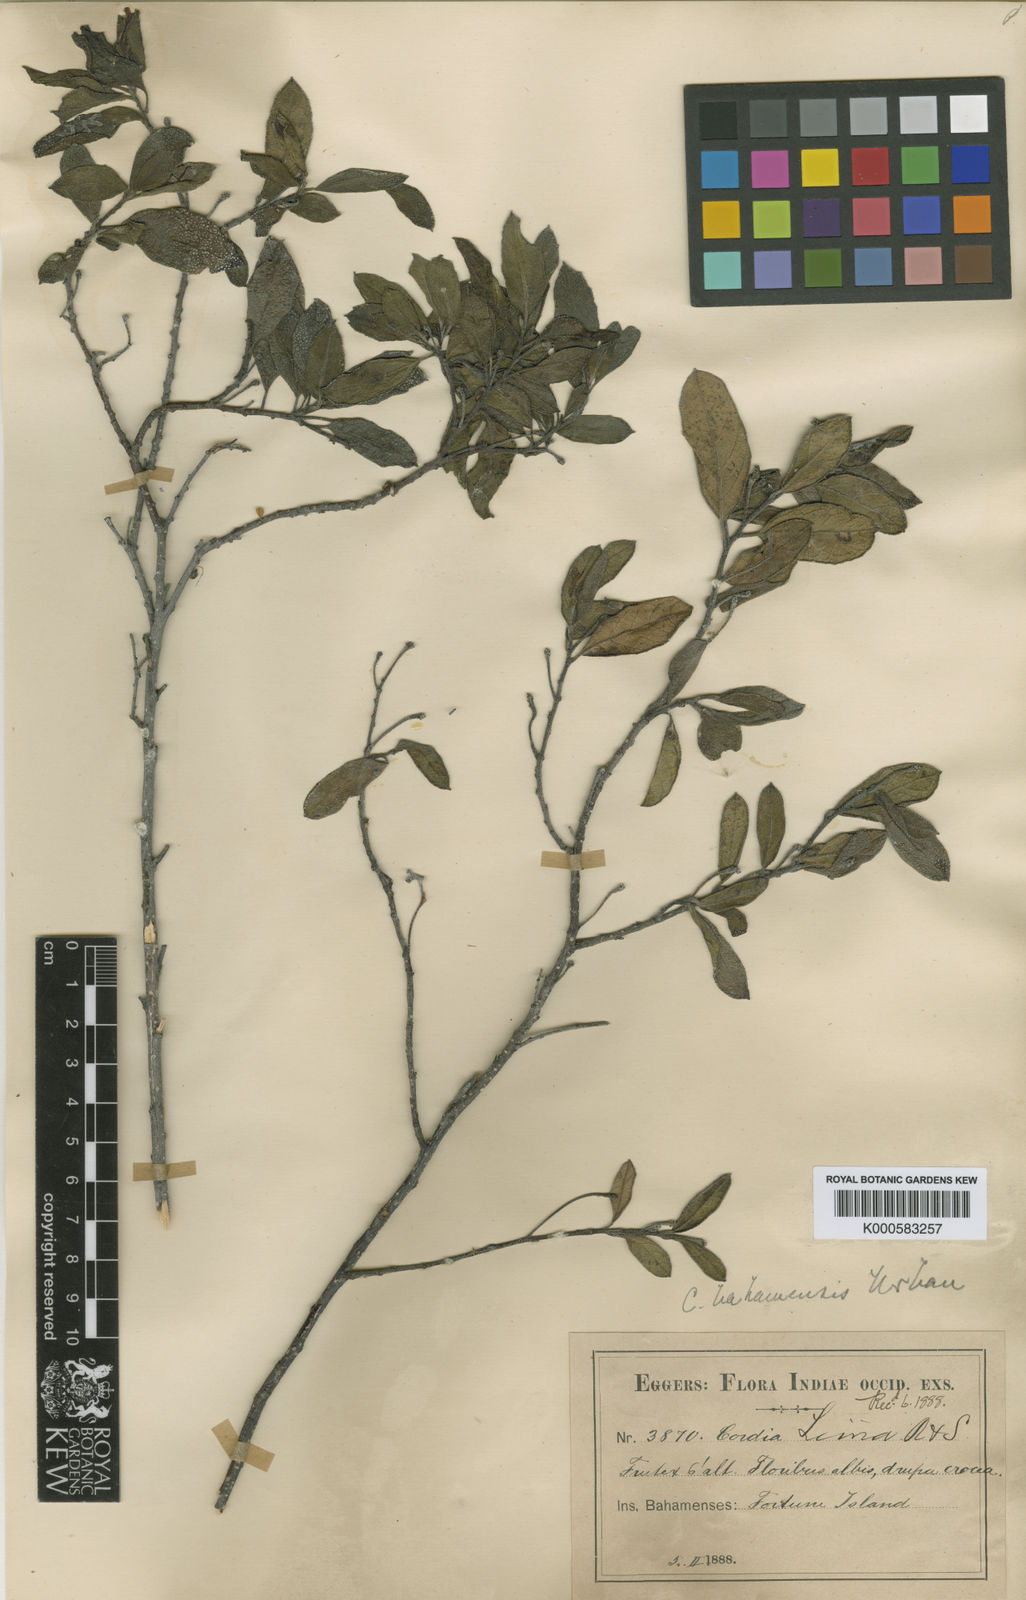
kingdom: Plantae
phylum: Tracheophyta
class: Magnoliopsida
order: Boraginales
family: Cordiaceae
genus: Varronia
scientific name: Varronia bahamensis
